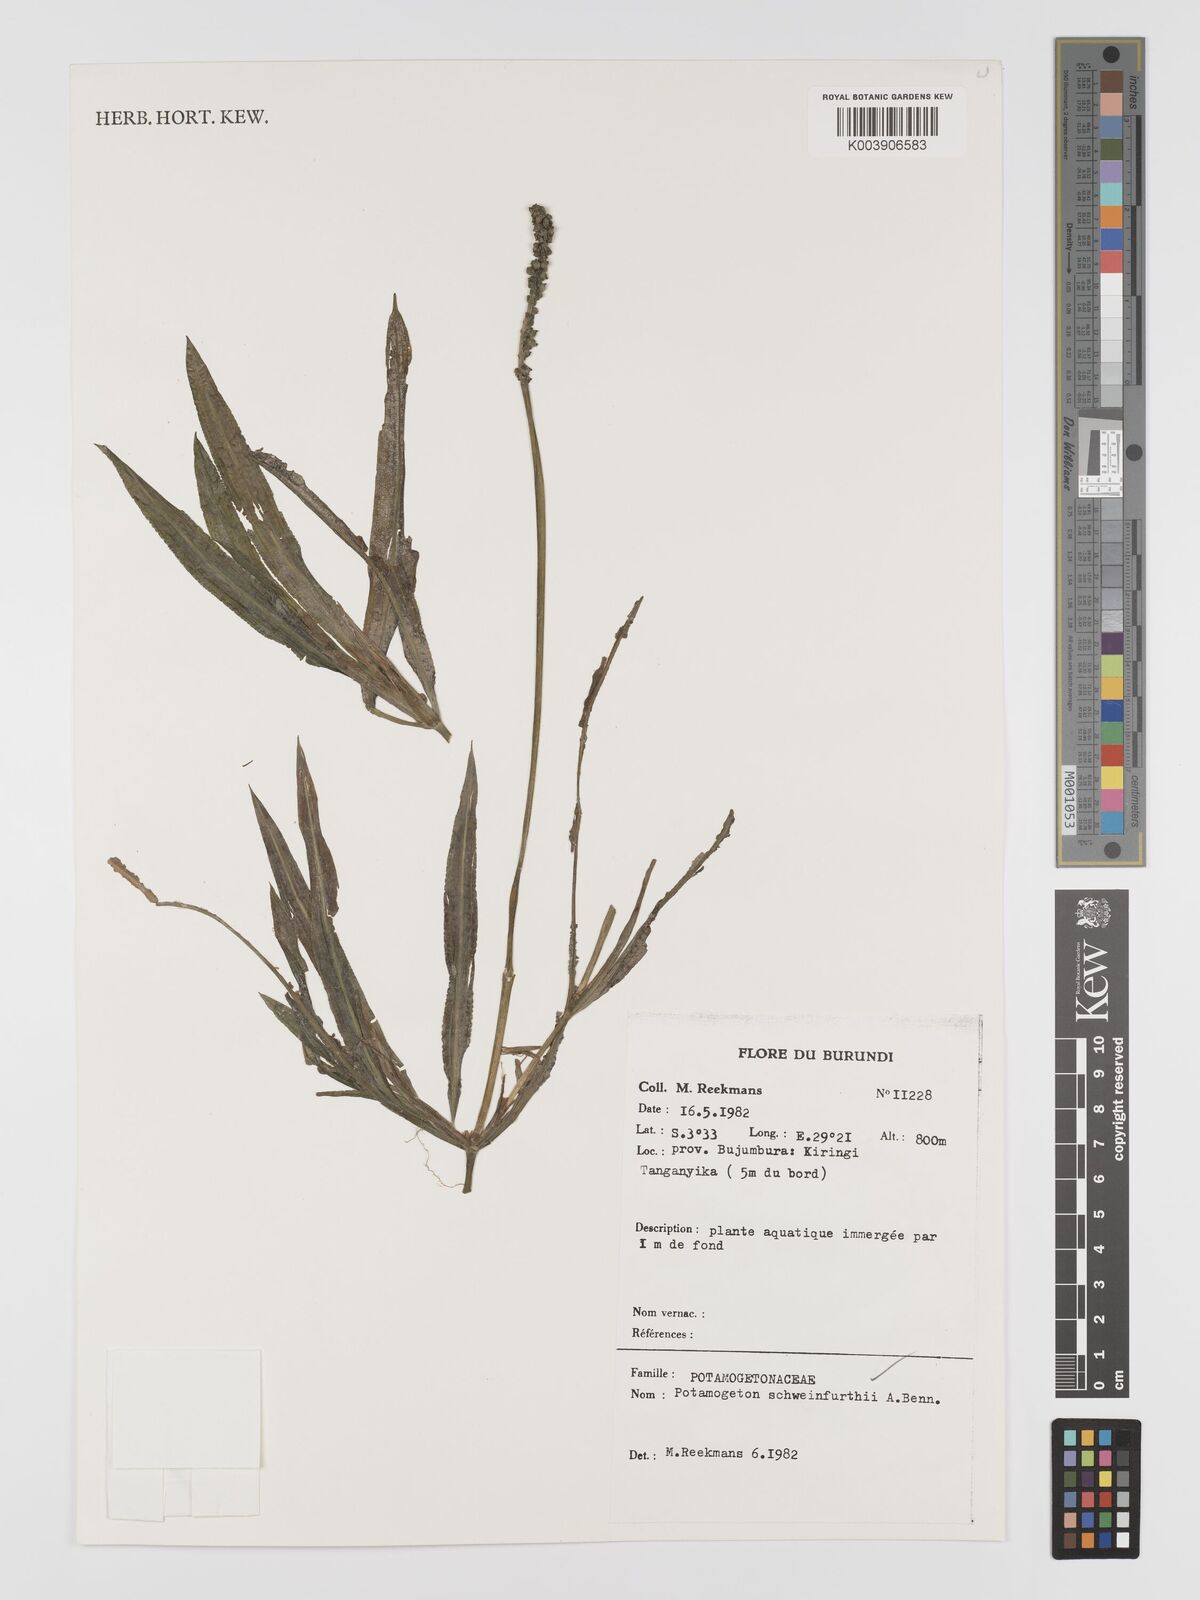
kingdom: Plantae
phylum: Tracheophyta
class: Liliopsida
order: Alismatales
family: Potamogetonaceae
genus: Potamogeton
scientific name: Potamogeton schweinfurthii
